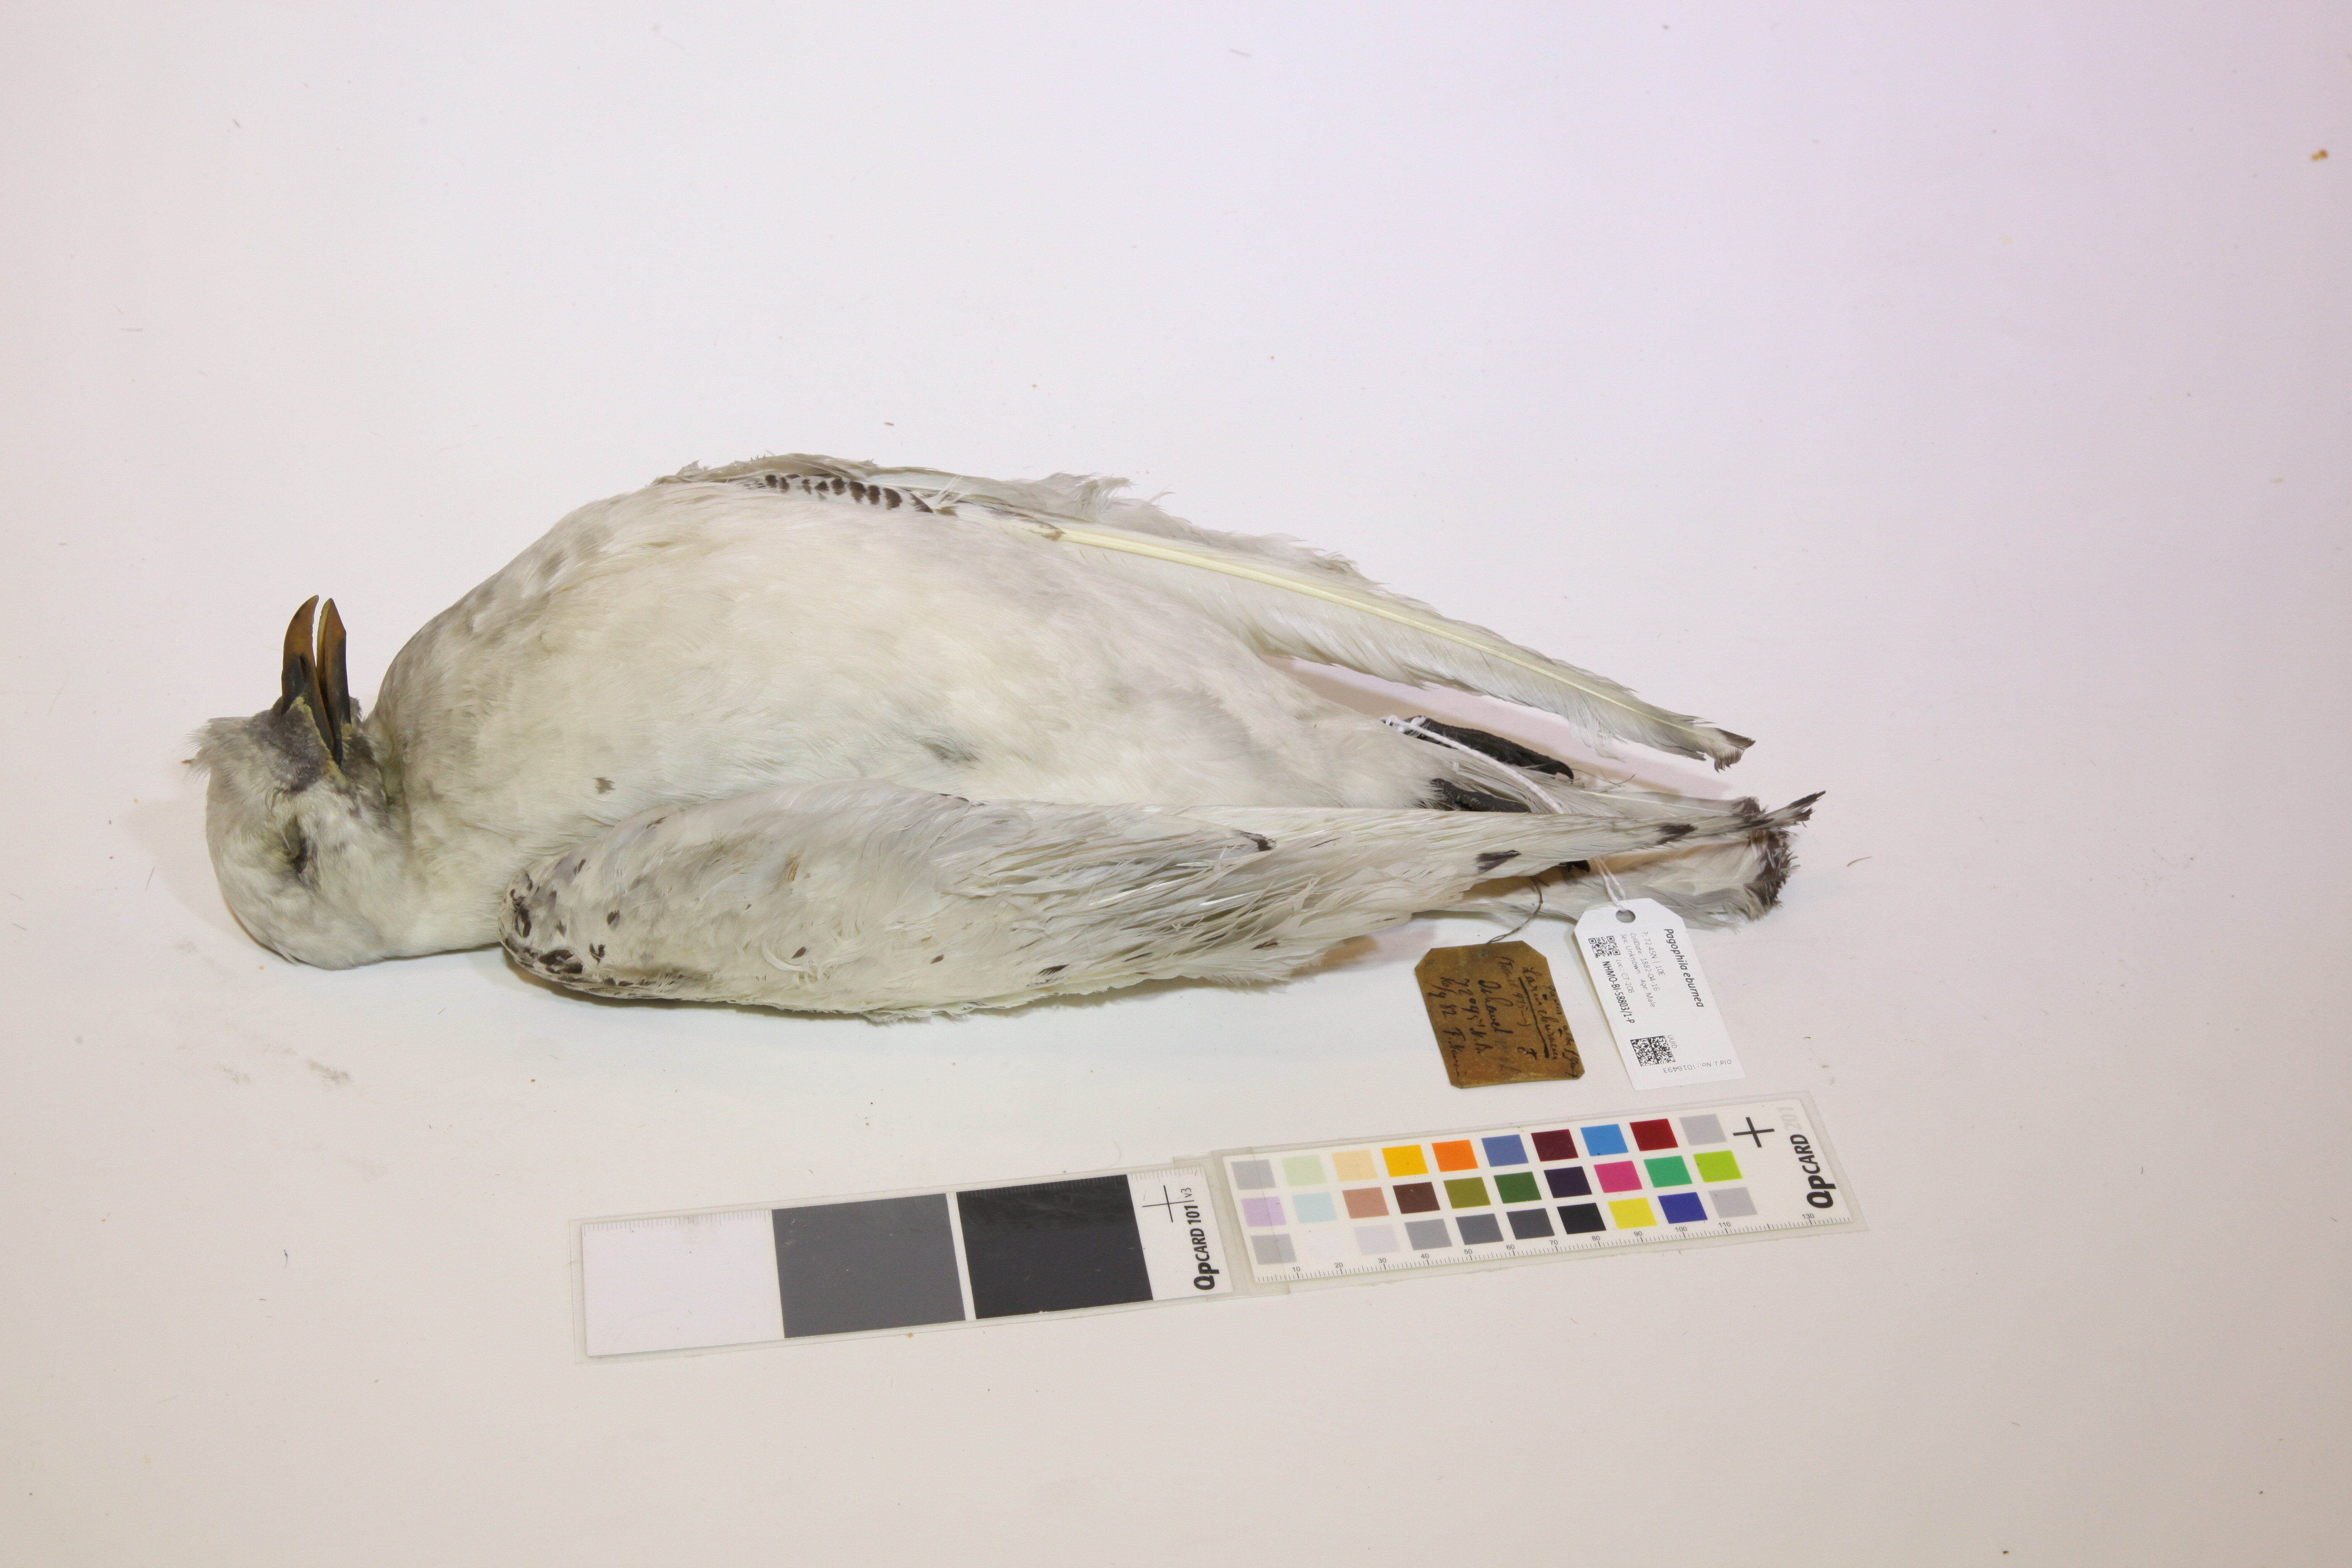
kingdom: Animalia
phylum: Chordata
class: Aves
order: Charadriiformes
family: Laridae
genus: Pagophila
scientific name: Pagophila eburnea
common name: Ivory gull
